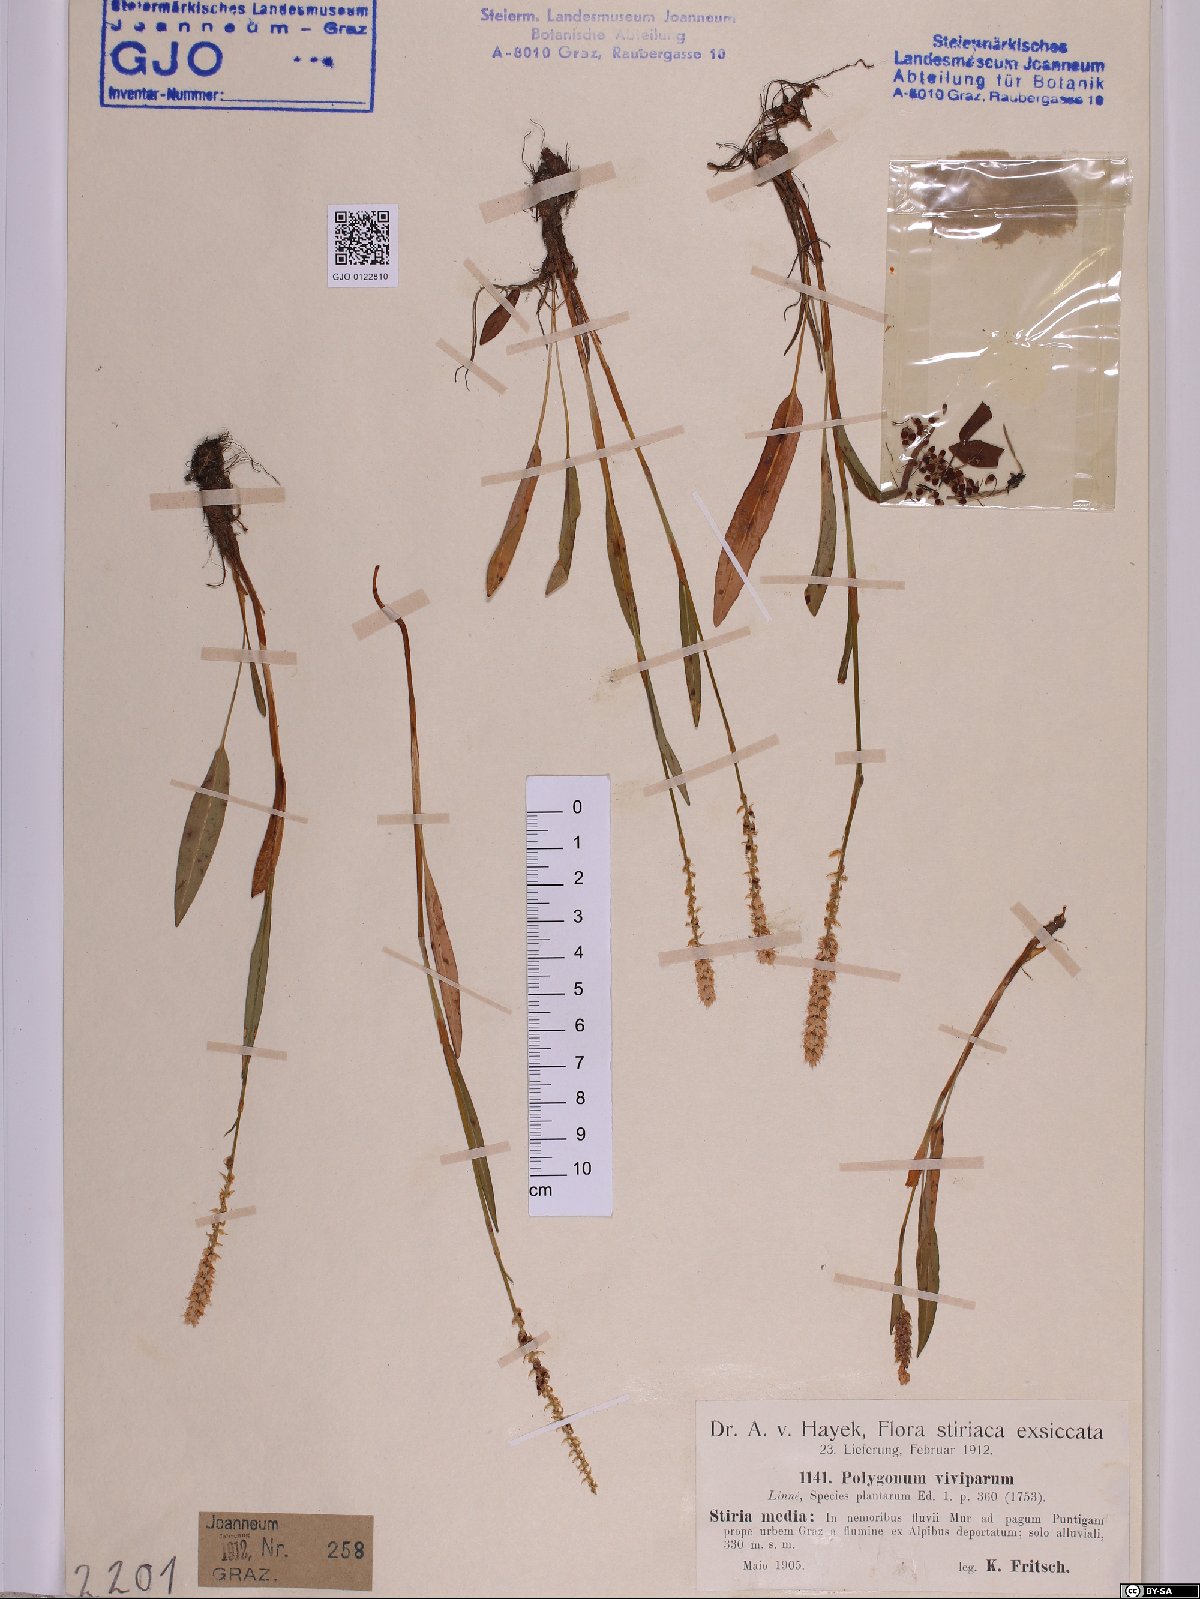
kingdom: Plantae
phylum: Tracheophyta
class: Magnoliopsida
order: Caryophyllales
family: Polygonaceae
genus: Bistorta
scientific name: Bistorta vivipara
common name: Alpine bistort
